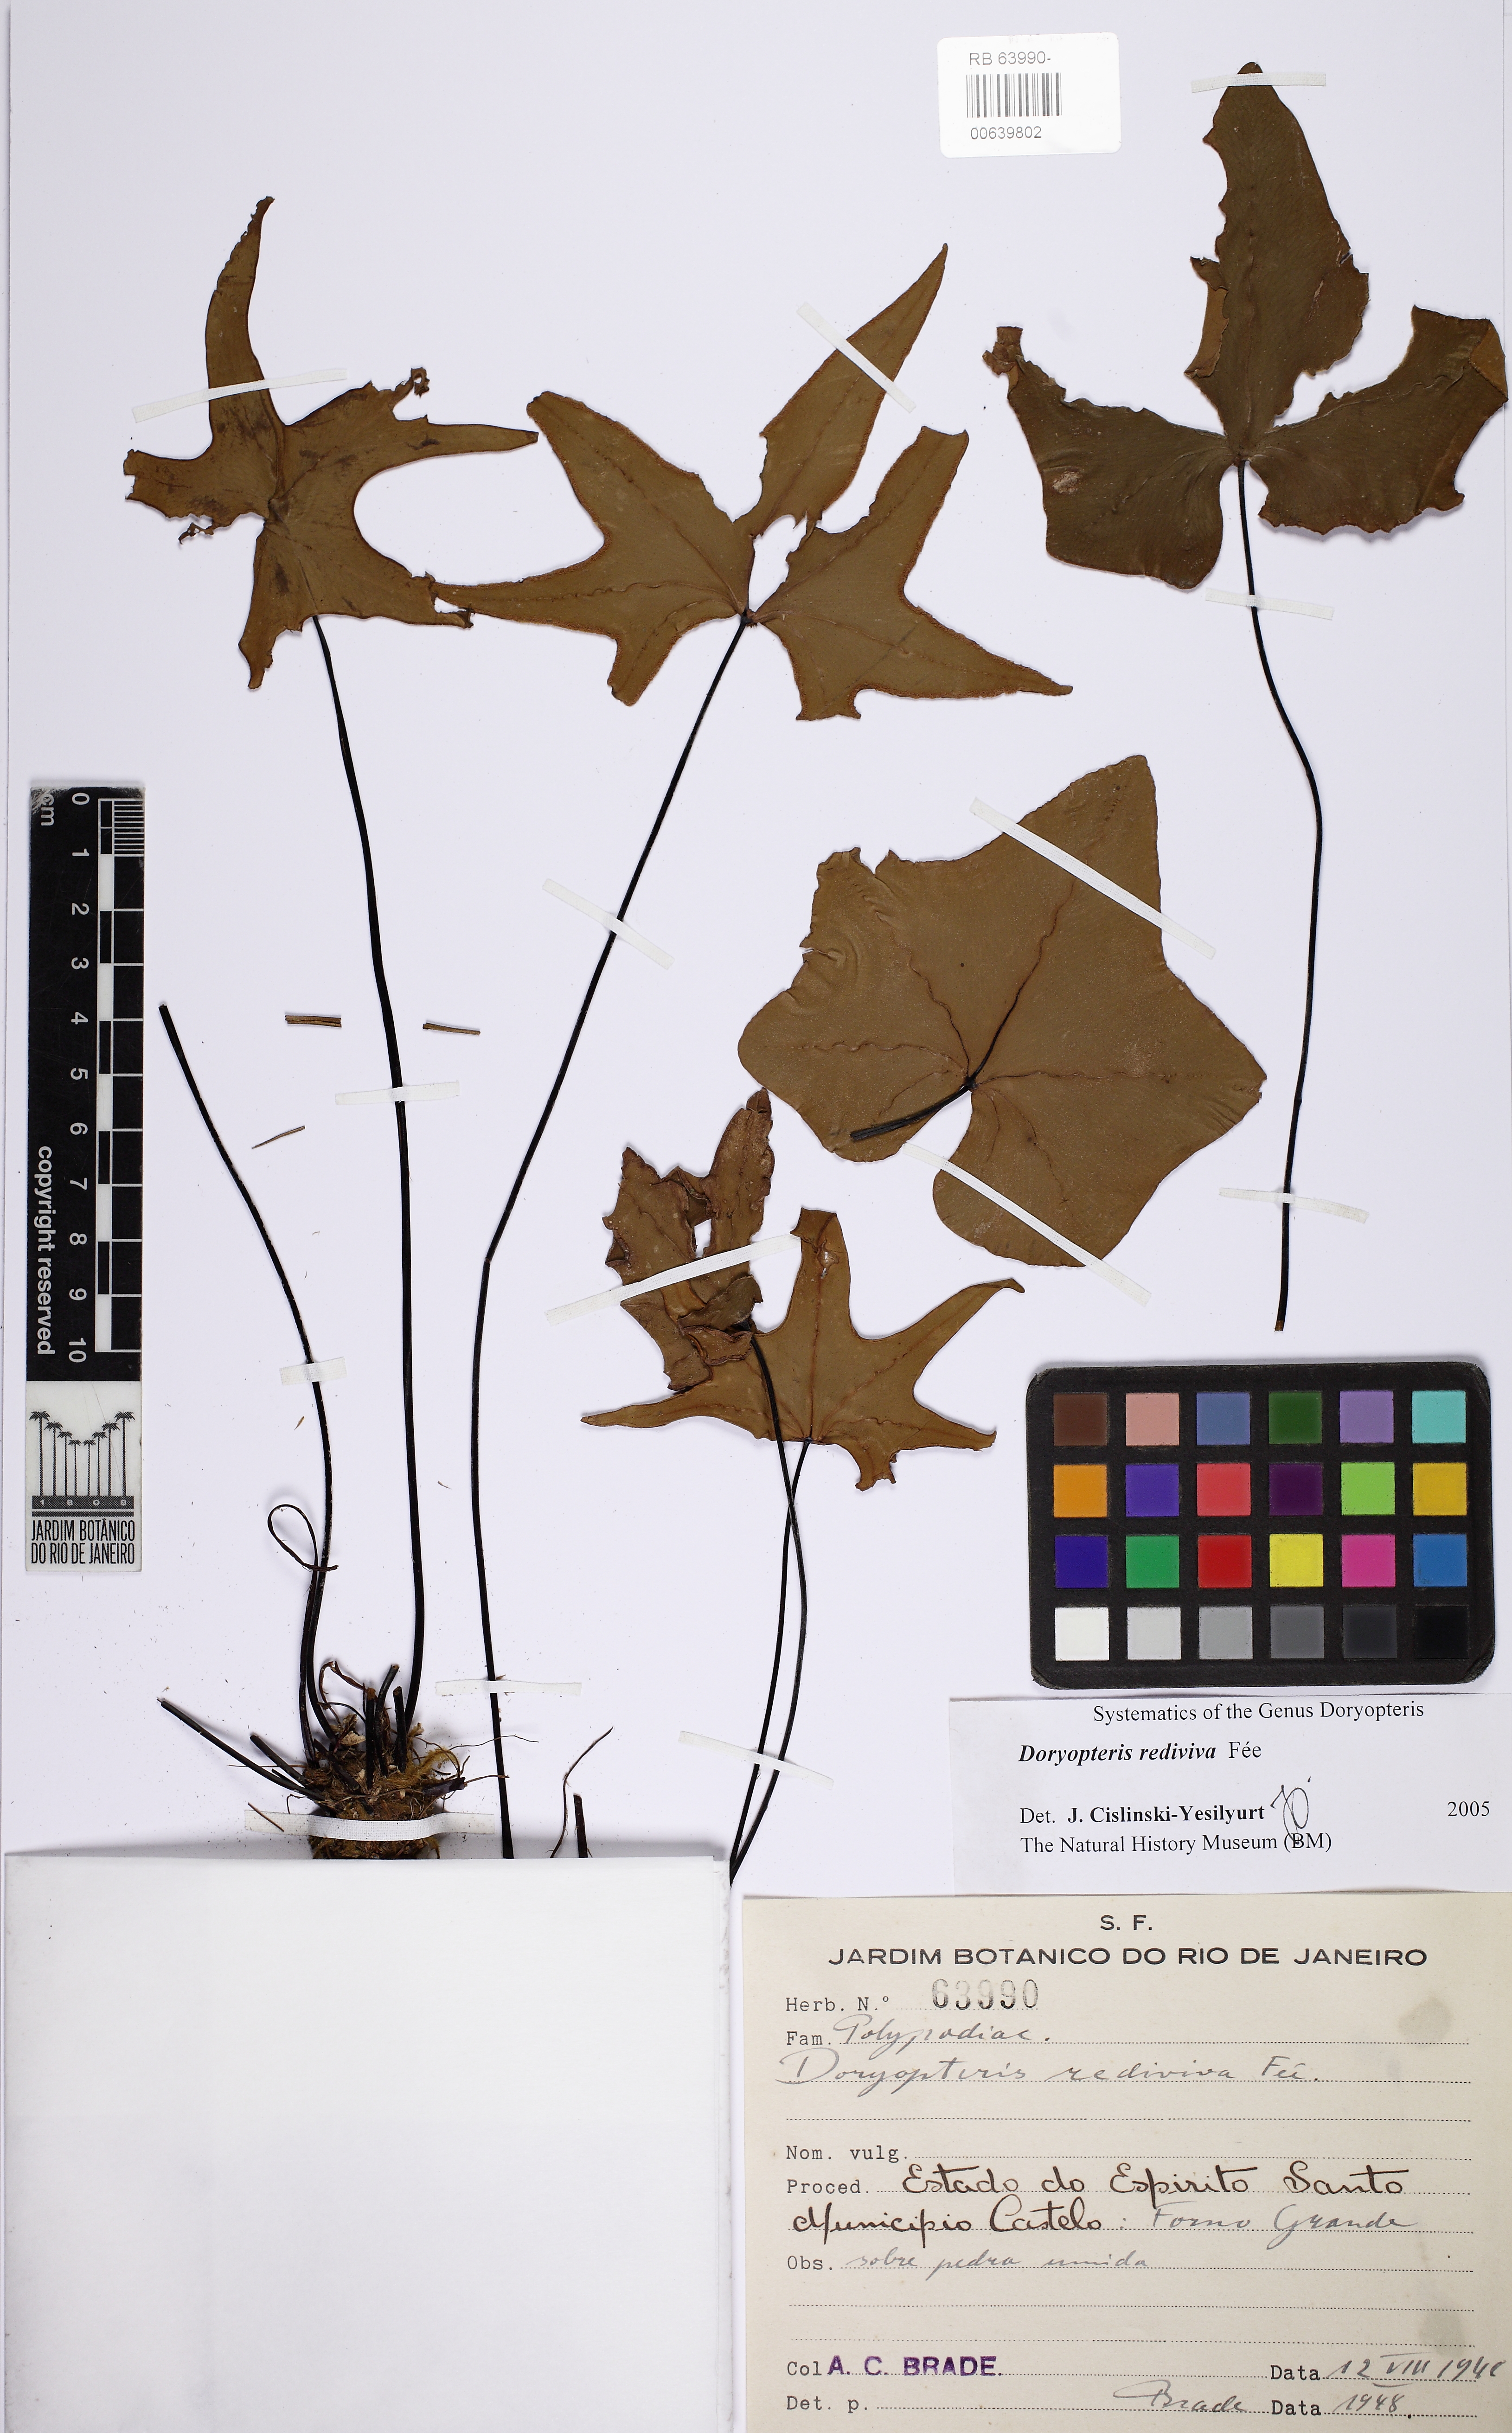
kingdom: Plantae
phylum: Tracheophyta
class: Polypodiopsida
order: Polypodiales
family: Pteridaceae
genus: Doryopteris
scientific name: Doryopteris rediviva
